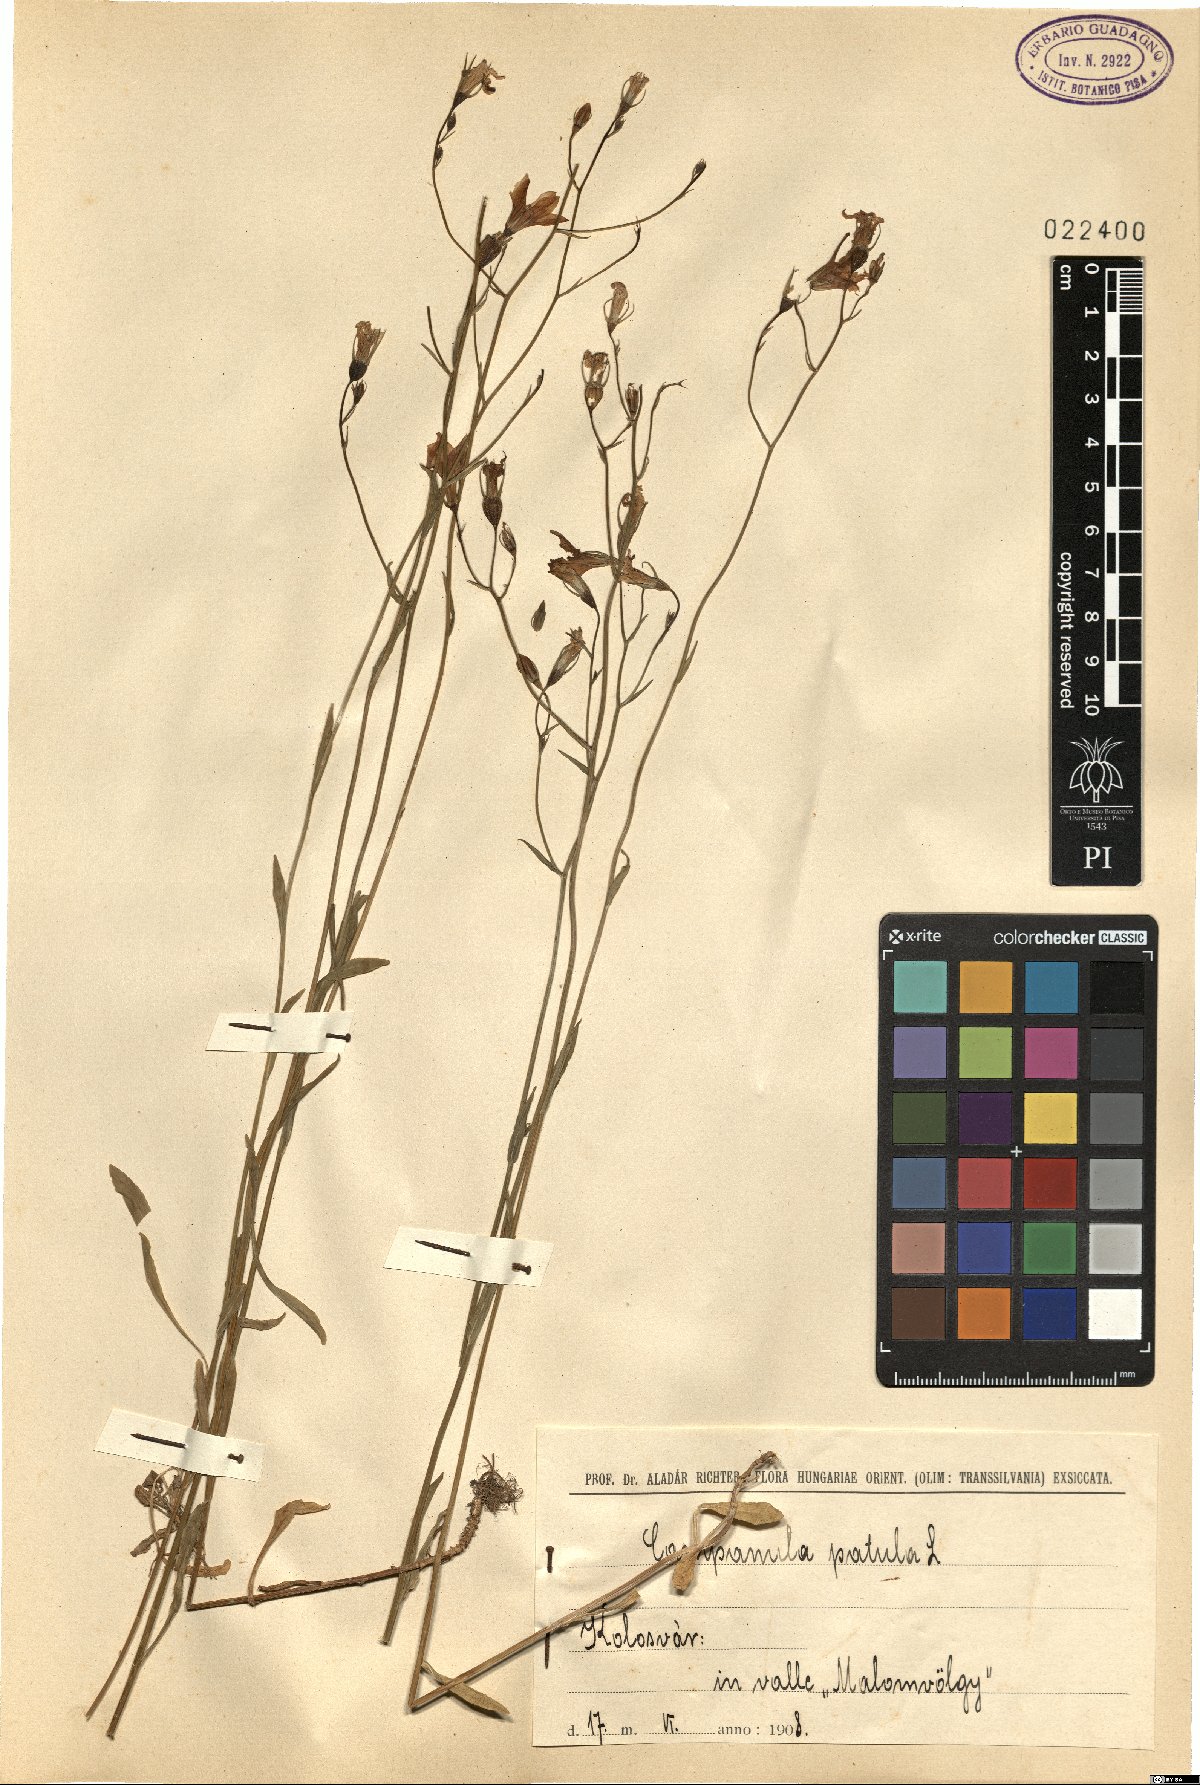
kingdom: Plantae
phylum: Tracheophyta
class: Magnoliopsida
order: Asterales
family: Campanulaceae
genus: Campanula
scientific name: Campanula patula
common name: Spreading bellflower
